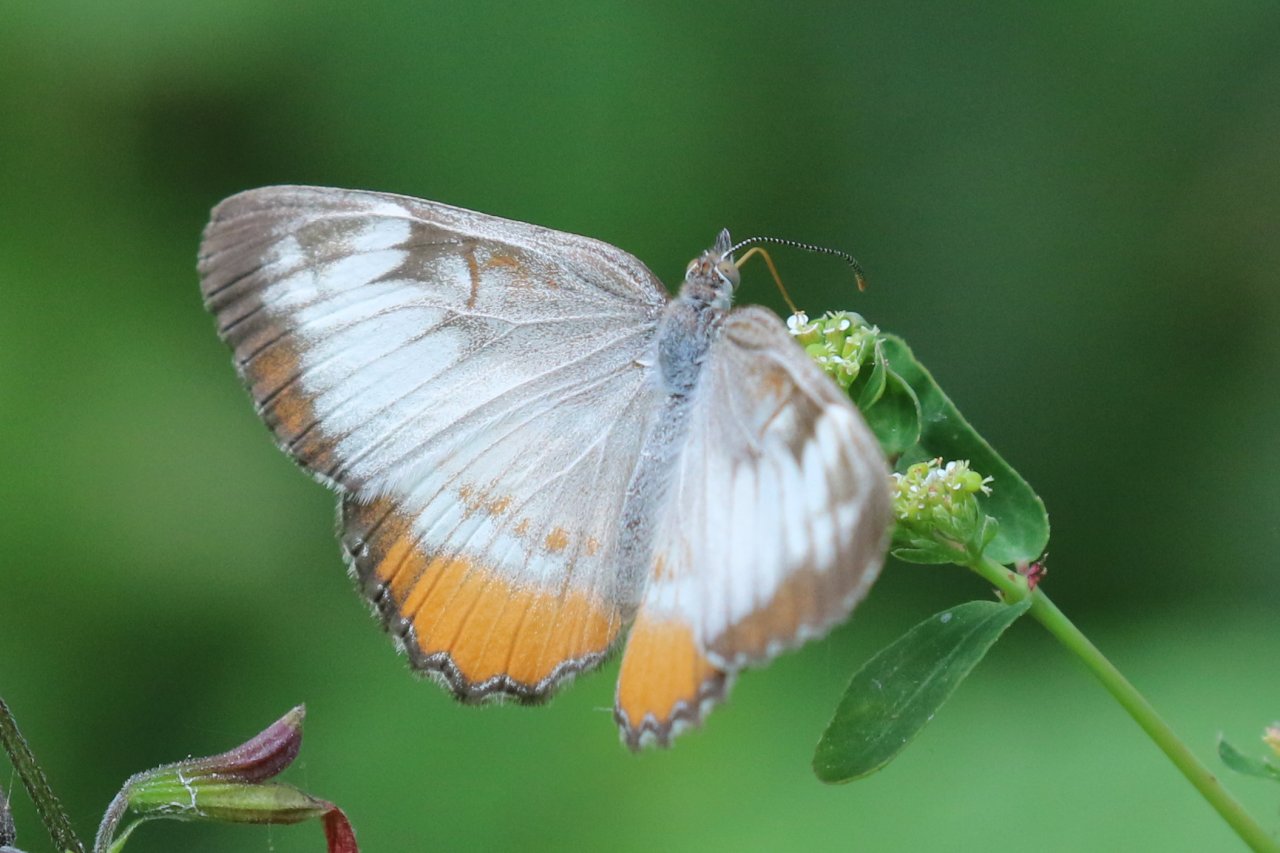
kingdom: Animalia
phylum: Arthropoda
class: Insecta
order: Lepidoptera
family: Nymphalidae
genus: Mestra
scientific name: Mestra amymone
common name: Common Mestra
